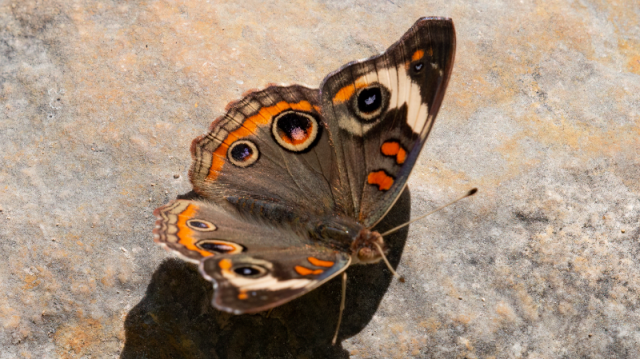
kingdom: Animalia
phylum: Arthropoda
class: Insecta
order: Lepidoptera
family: Nymphalidae
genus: Junonia
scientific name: Junonia coenia
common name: Common Buckeye
